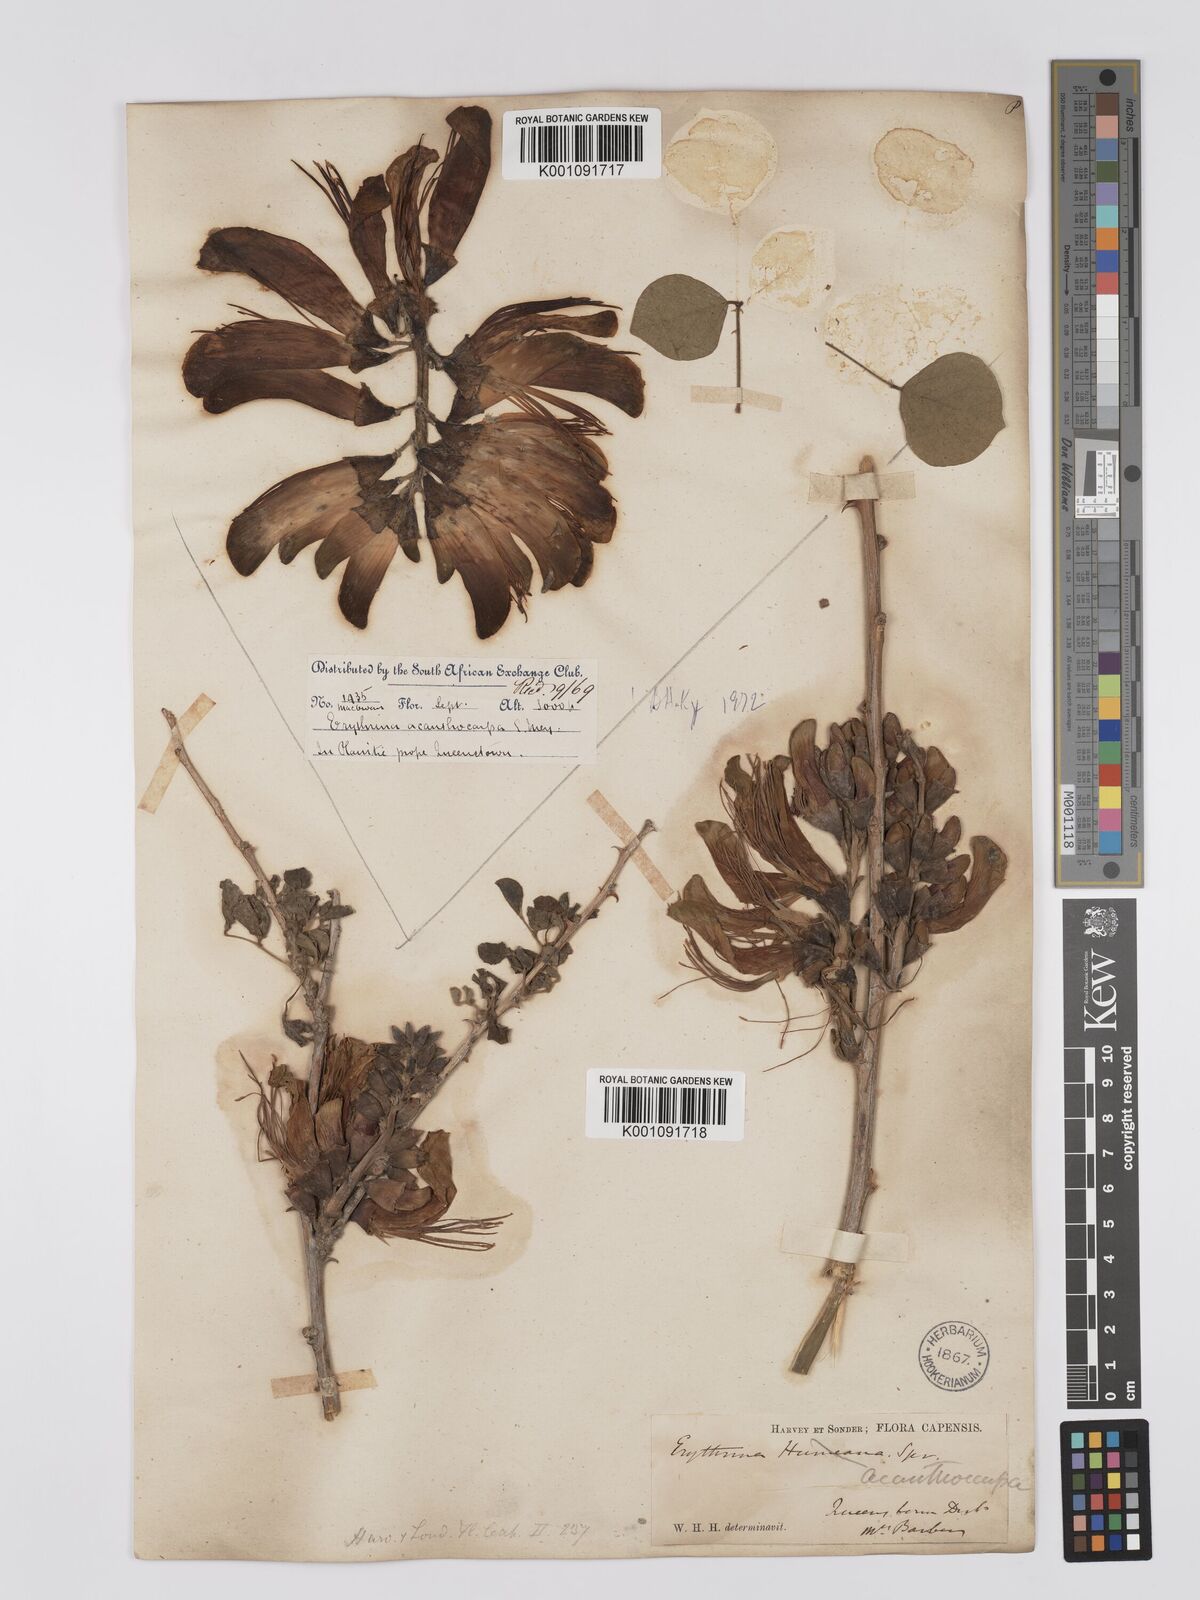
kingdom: Plantae
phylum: Tracheophyta
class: Magnoliopsida
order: Fabales
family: Fabaceae
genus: Erythrina
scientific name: Erythrina acanthocarpa
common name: Thorny coraltree
